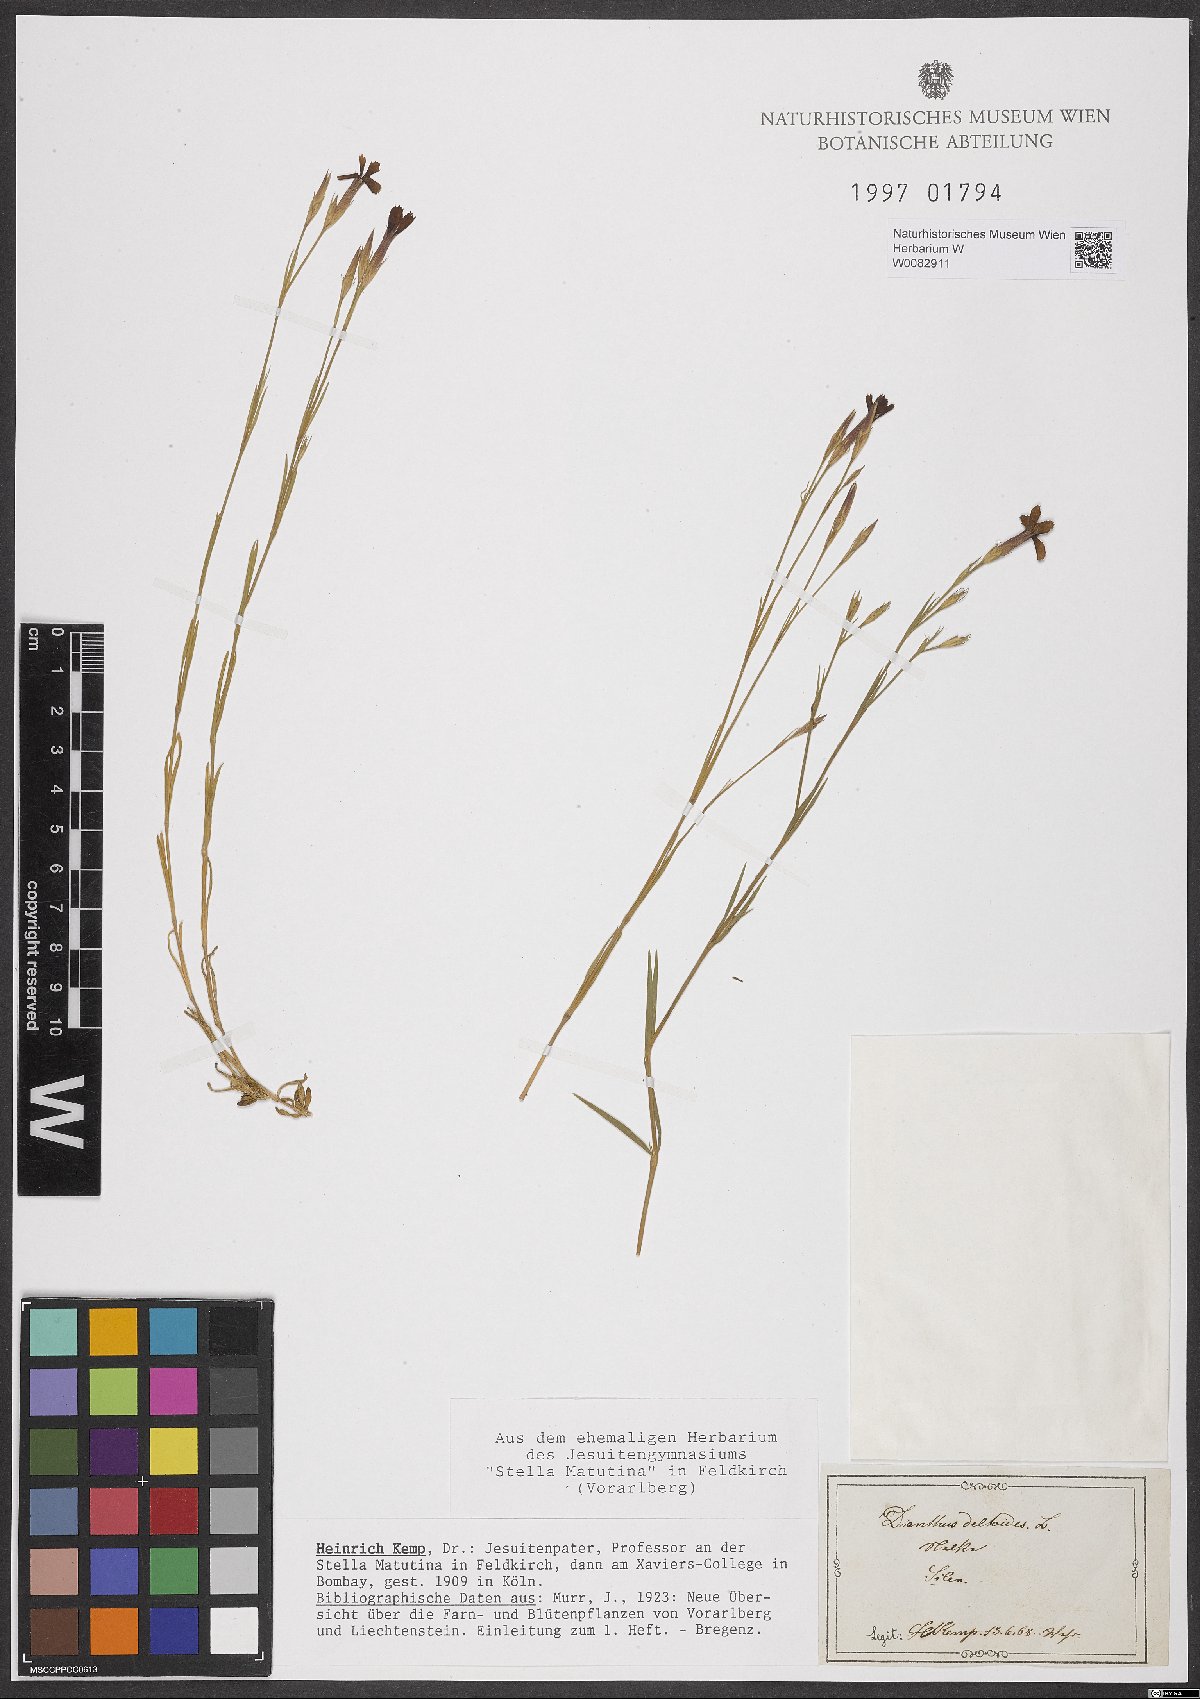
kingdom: Plantae
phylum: Tracheophyta
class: Magnoliopsida
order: Caryophyllales
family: Caryophyllaceae
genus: Dianthus
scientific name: Dianthus deltoides
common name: Maiden pink
